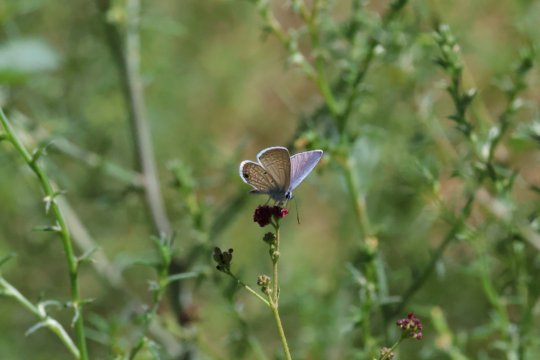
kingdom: Animalia
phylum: Arthropoda
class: Insecta
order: Lepidoptera
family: Lycaenidae
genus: Hemiargus
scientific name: Hemiargus ceraunus
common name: Ceraunus Blue
